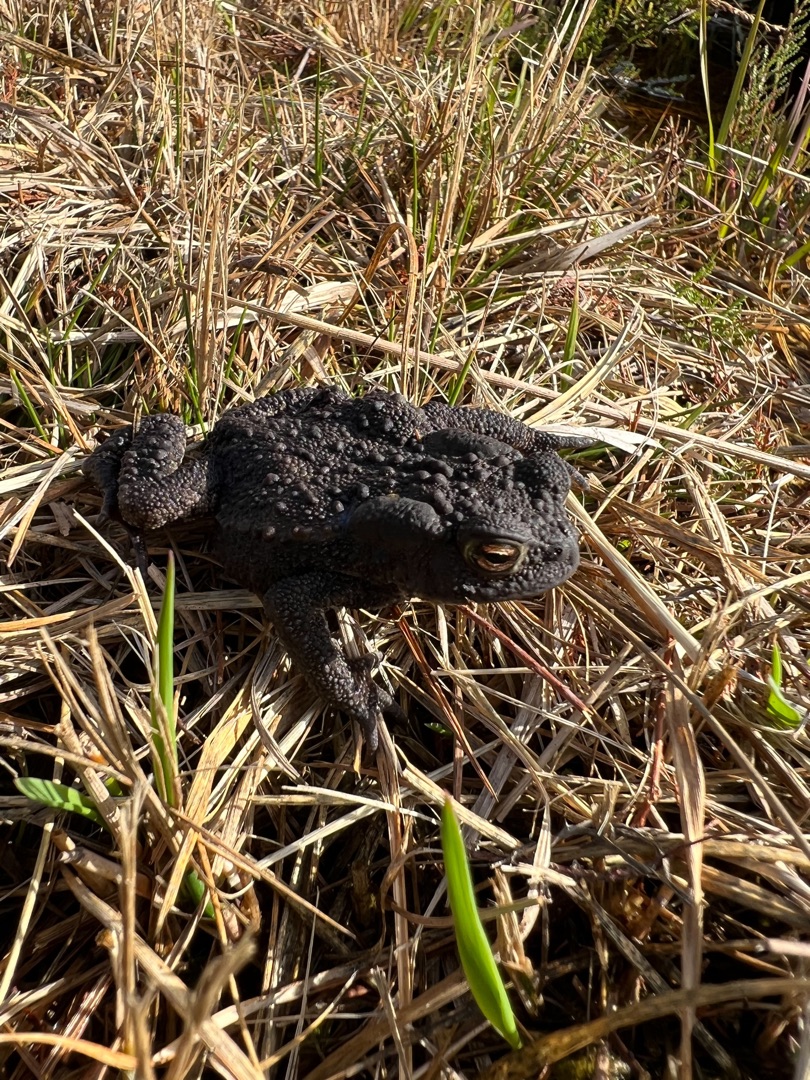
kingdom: Animalia
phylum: Chordata
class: Amphibia
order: Anura
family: Bufonidae
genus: Bufo
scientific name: Bufo bufo
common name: Skrubtudse
